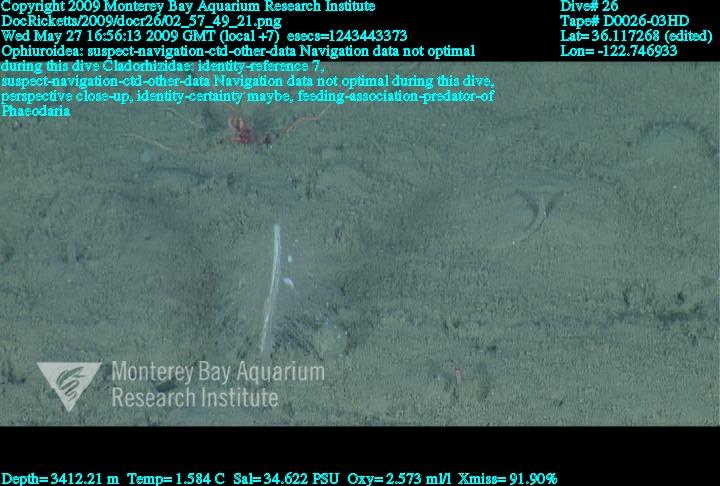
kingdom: Animalia
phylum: Porifera
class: Demospongiae
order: Poecilosclerida
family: Cladorhizidae
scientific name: Cladorhizidae
